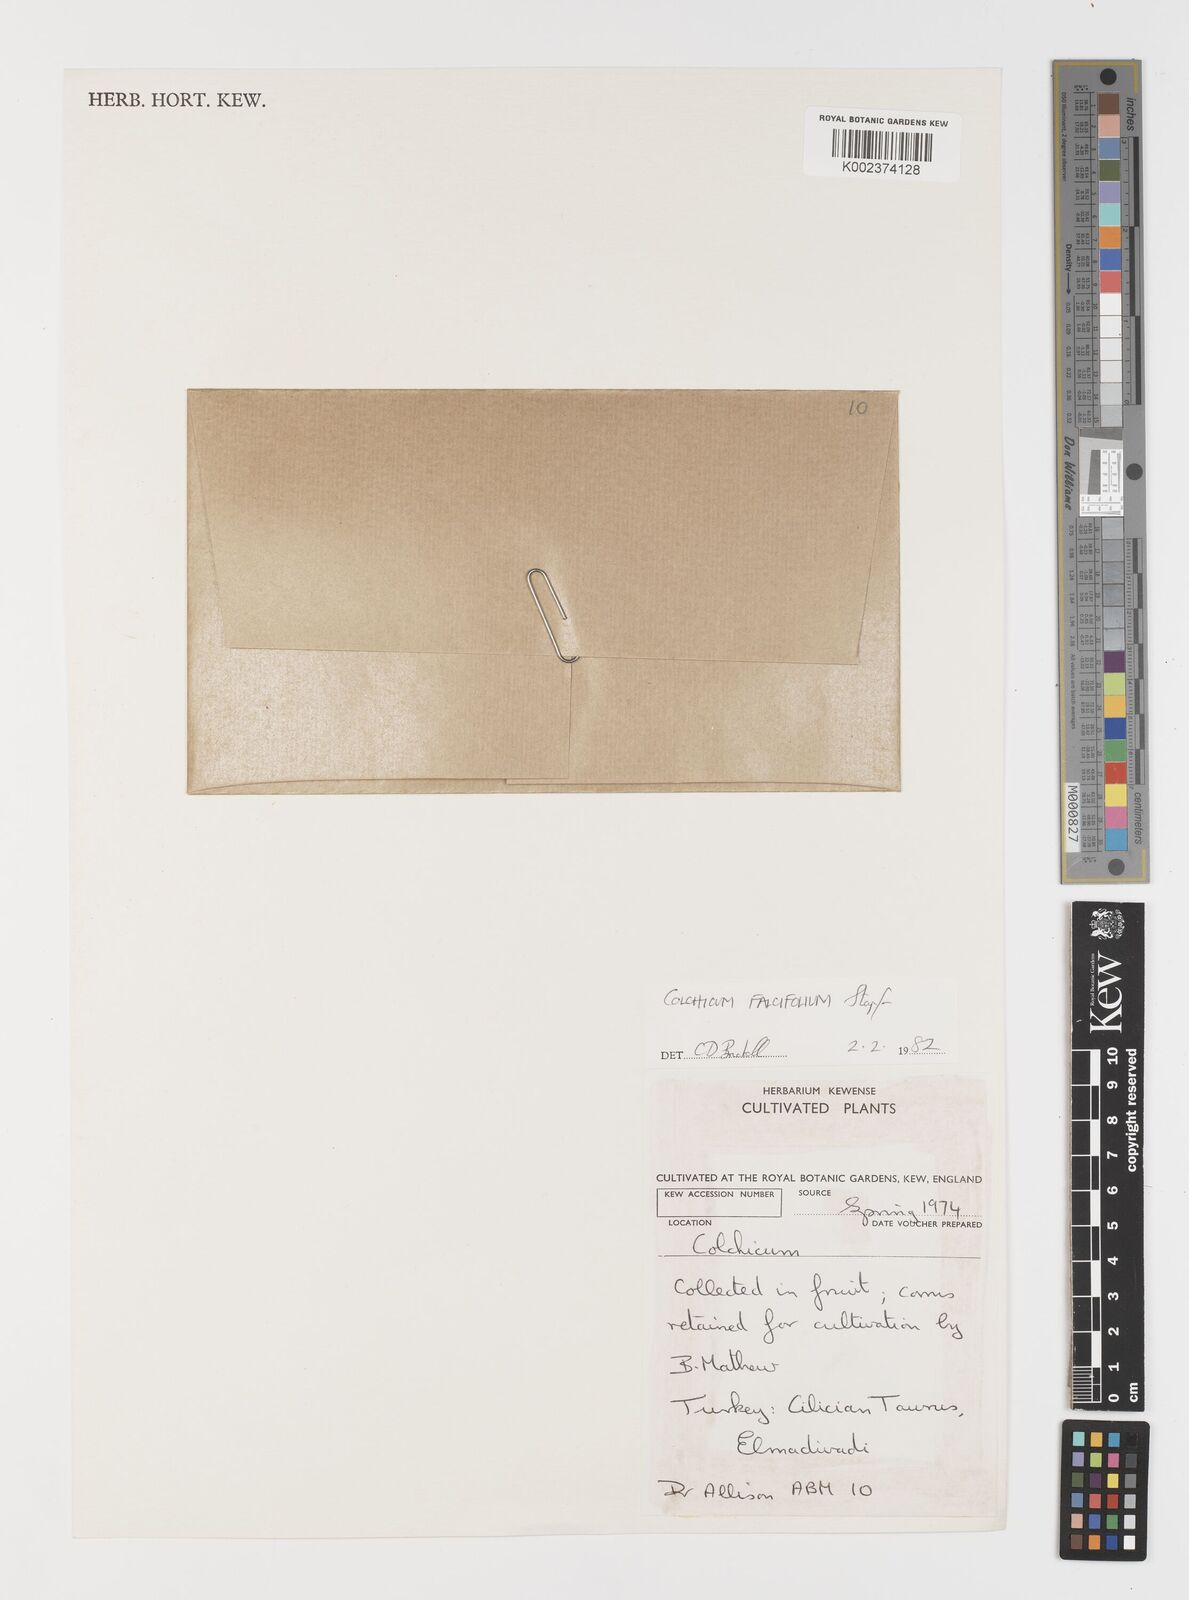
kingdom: Plantae
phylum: Tracheophyta
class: Liliopsida
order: Asparagales
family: Iridaceae
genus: Iris
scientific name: Iris caucasica
